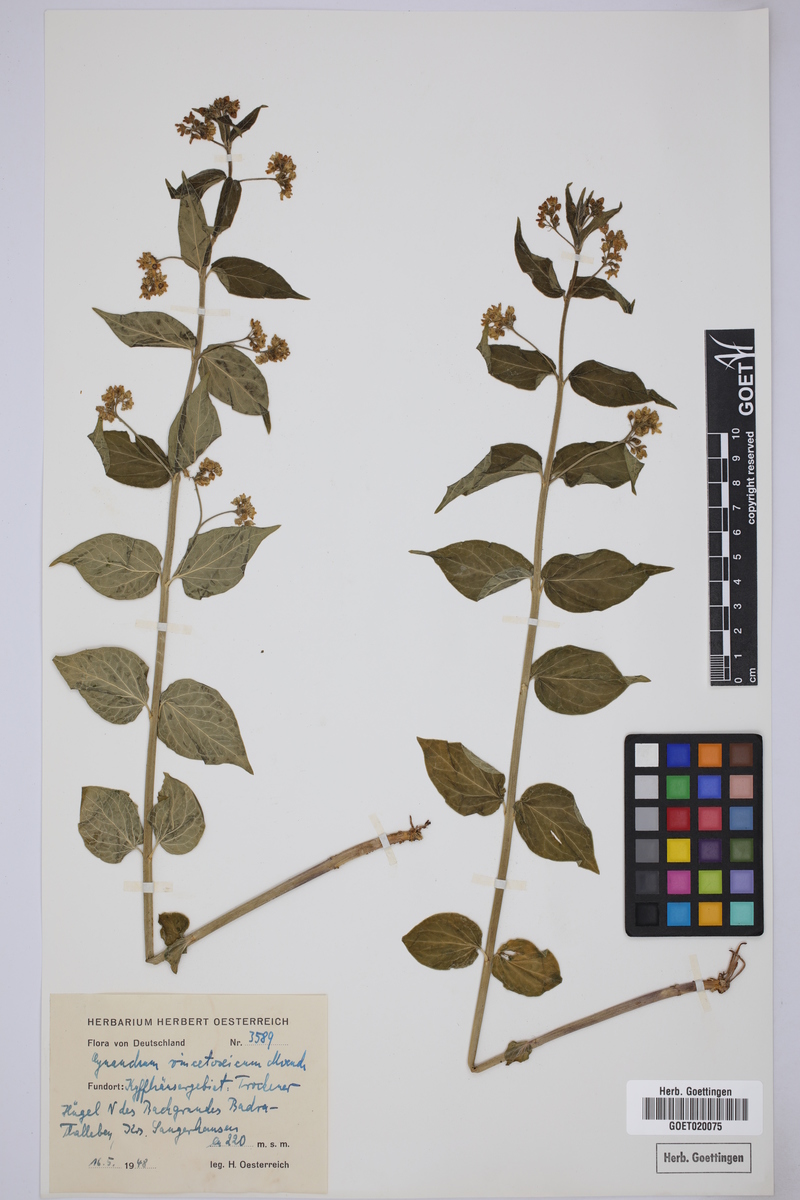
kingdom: Plantae
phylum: Tracheophyta
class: Magnoliopsida
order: Gentianales
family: Apocynaceae
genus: Vincetoxicum
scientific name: Vincetoxicum hirundinaria
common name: White swallowwort
